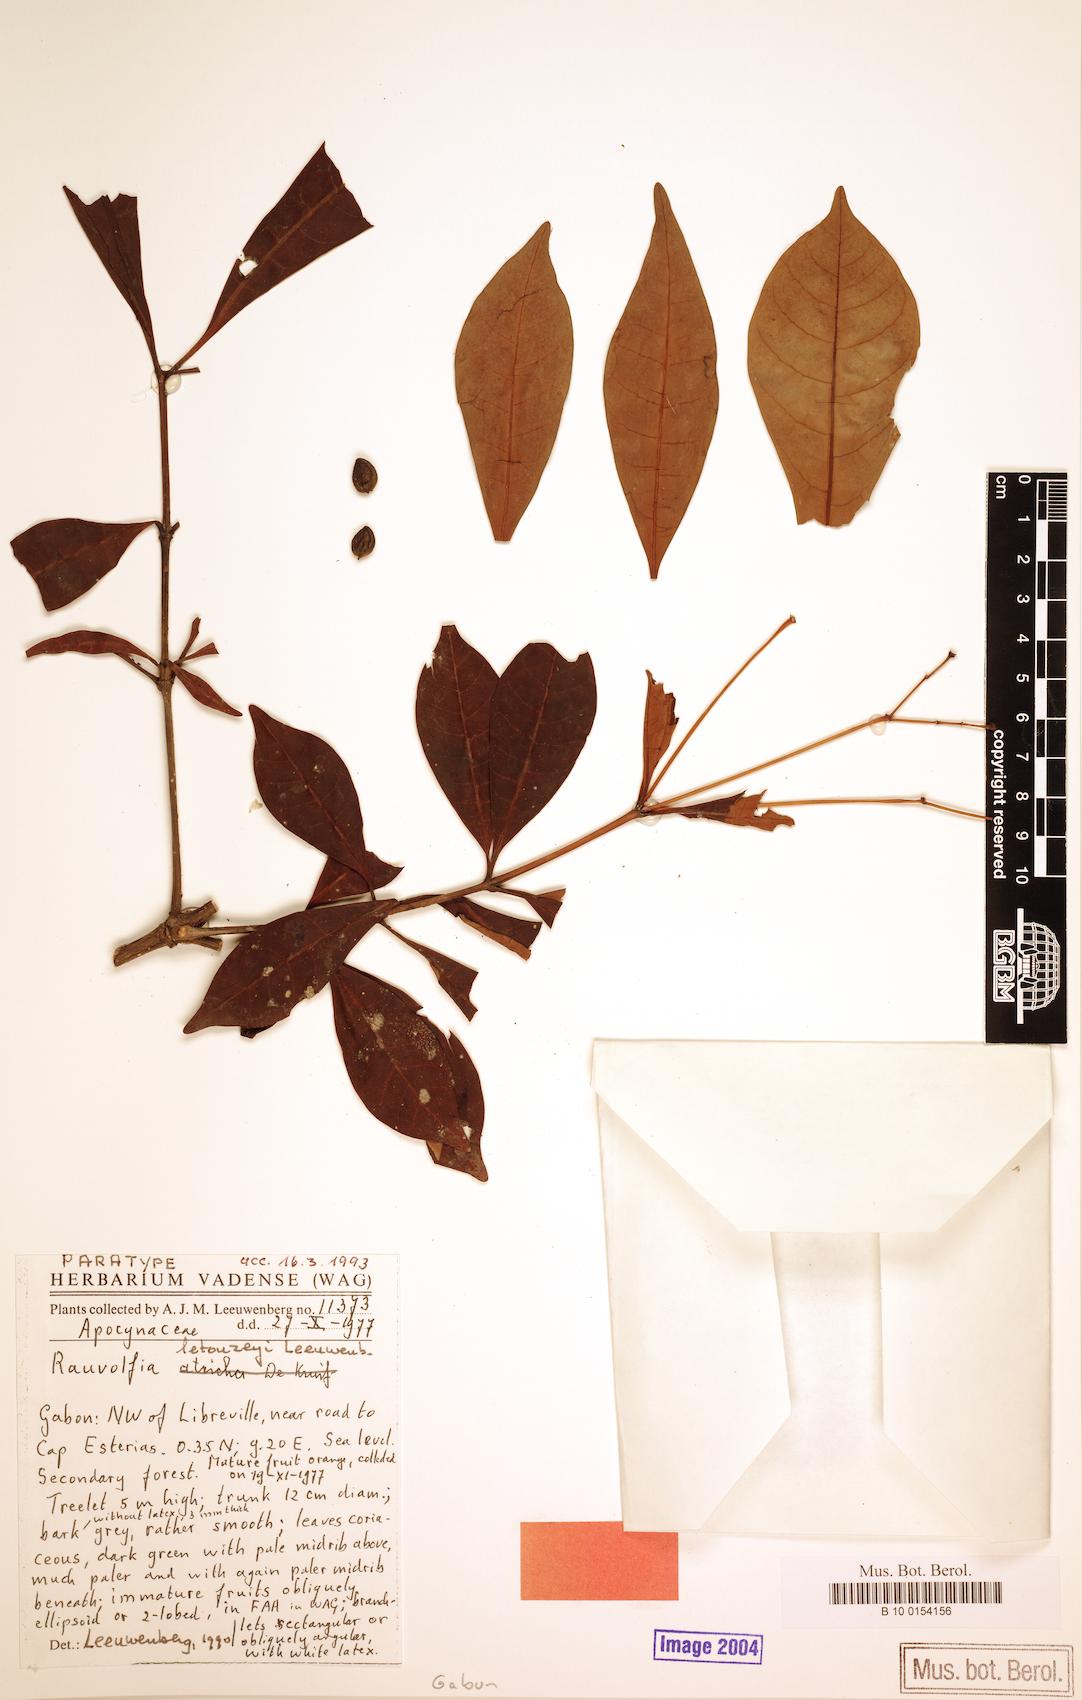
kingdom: Plantae
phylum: Tracheophyta
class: Magnoliopsida
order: Gentianales
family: Apocynaceae
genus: Rauvolfia
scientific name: Rauvolfia letouzeyi
